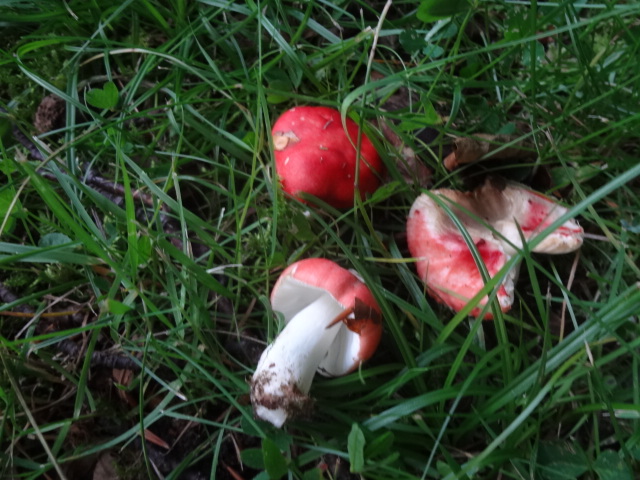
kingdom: Fungi
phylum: Basidiomycota
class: Agaricomycetes
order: Russulales
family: Russulaceae
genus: Russula
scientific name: Russula nobilis
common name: lille gift-skørhat
